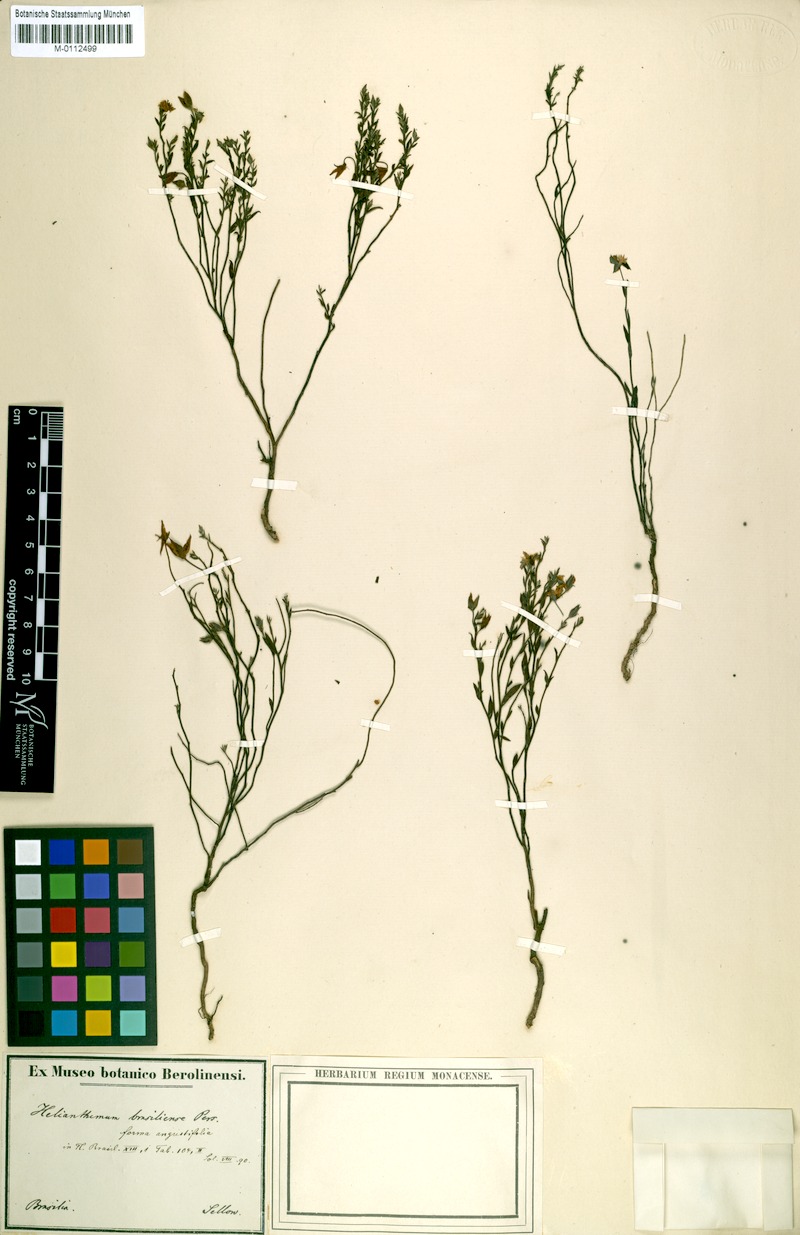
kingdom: Plantae
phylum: Tracheophyta
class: Magnoliopsida
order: Malvales
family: Cistaceae
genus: Crocanthemum
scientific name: Crocanthemum brasiliensis
